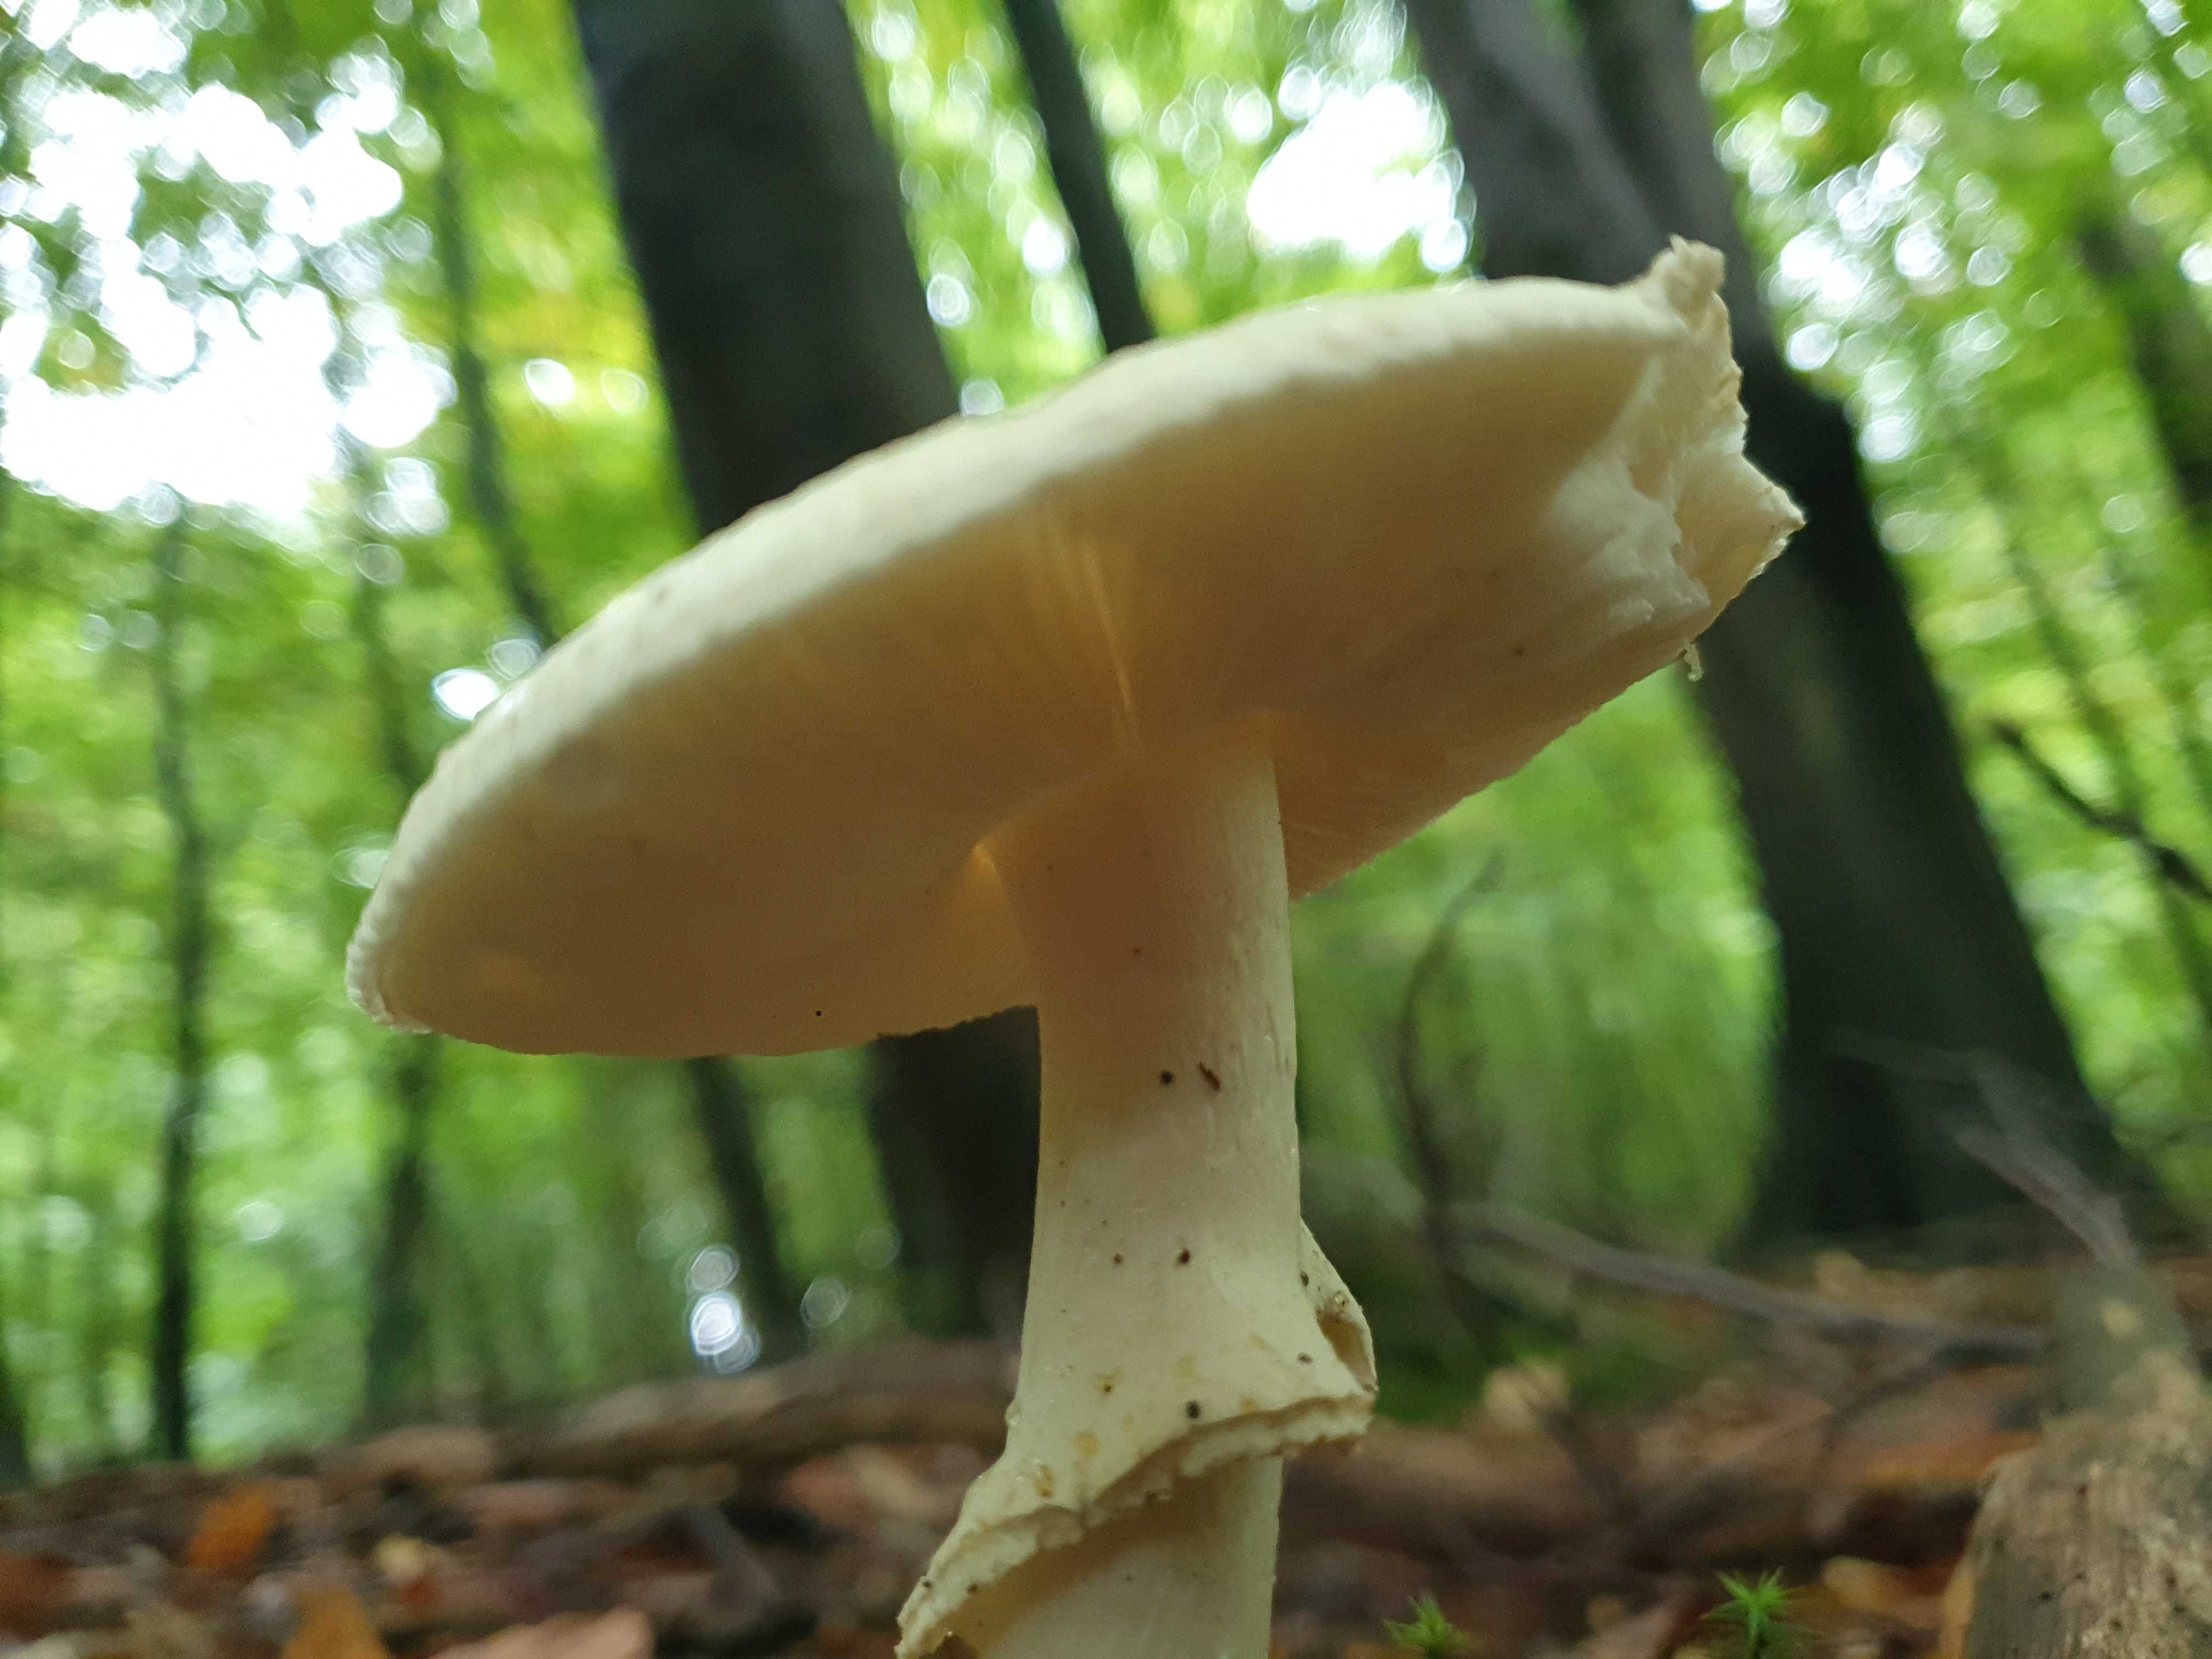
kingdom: Fungi
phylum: Basidiomycota
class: Agaricomycetes
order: Agaricales
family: Amanitaceae
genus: Amanita
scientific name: Amanita citrina
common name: kugleknoldet fluesvamp
